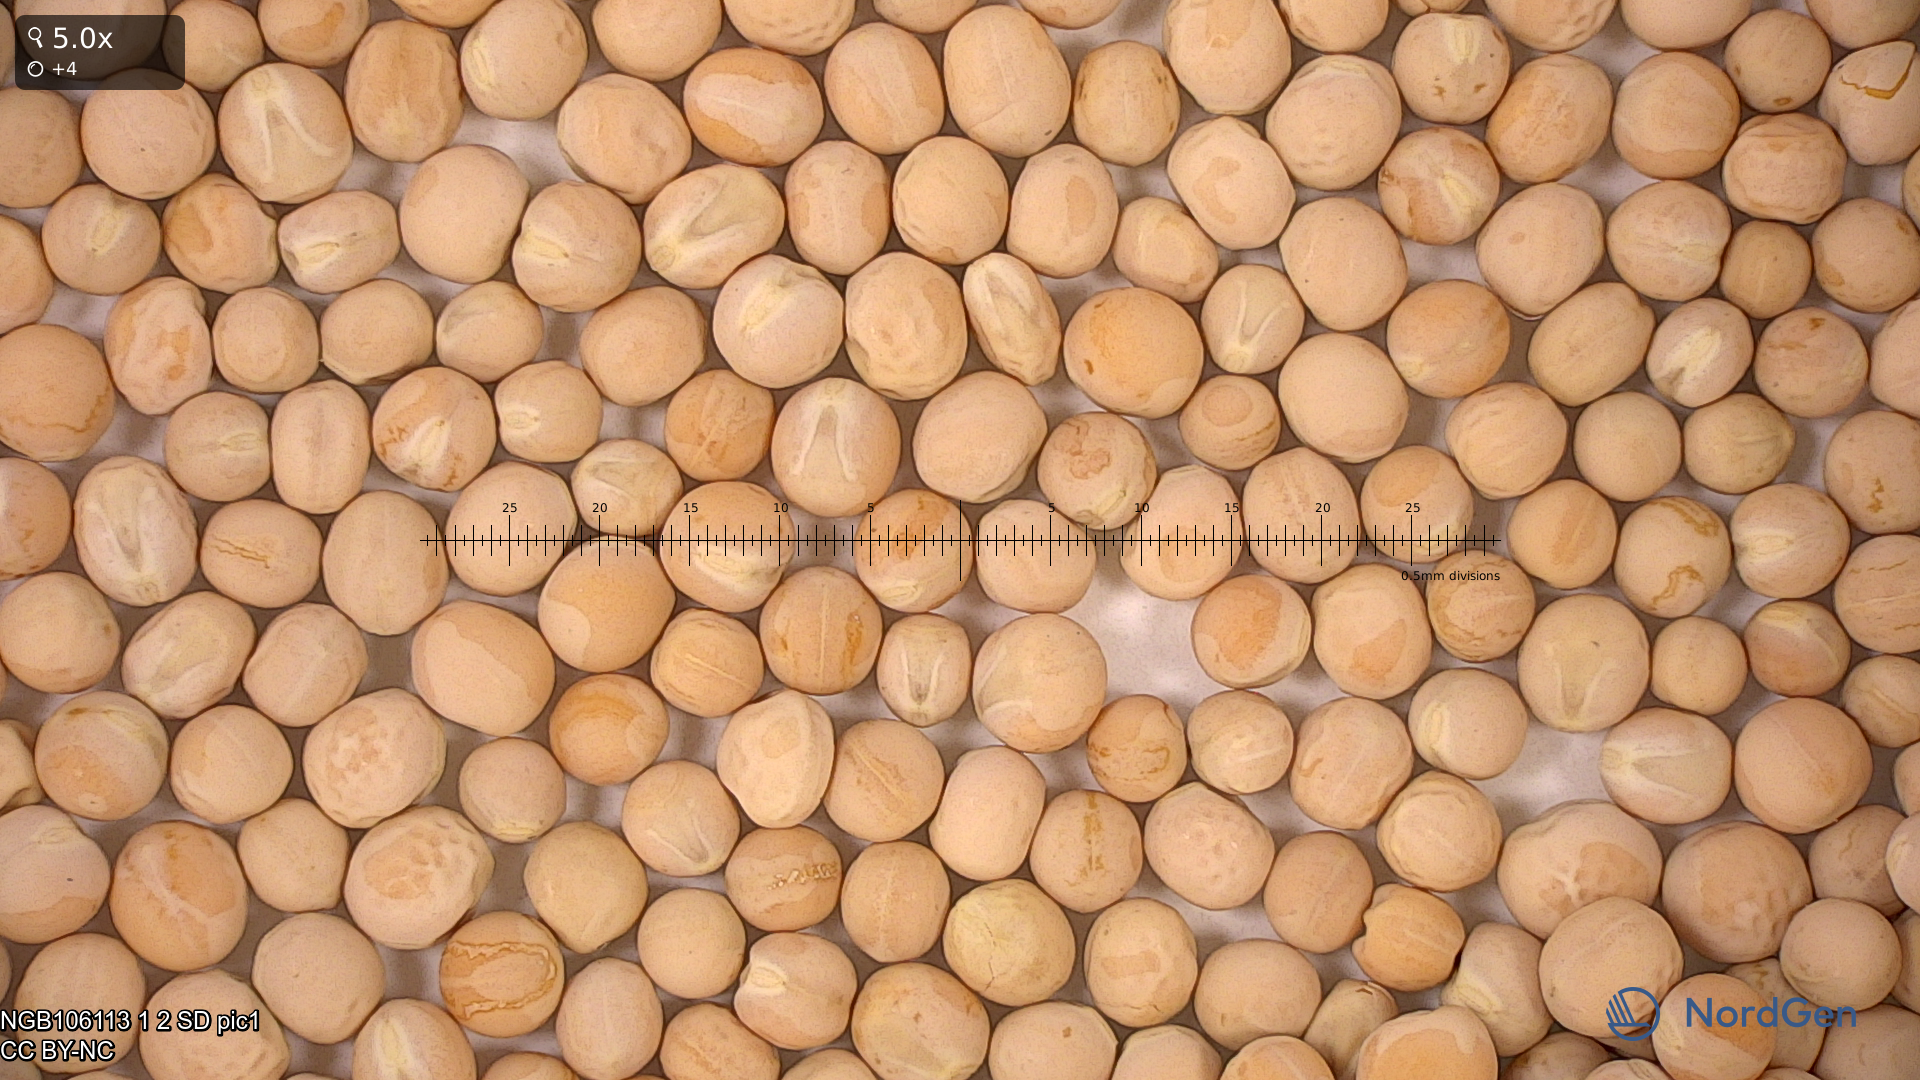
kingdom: Plantae
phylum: Tracheophyta
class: Magnoliopsida
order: Fabales
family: Fabaceae
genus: Lathyrus
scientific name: Lathyrus oleraceus
